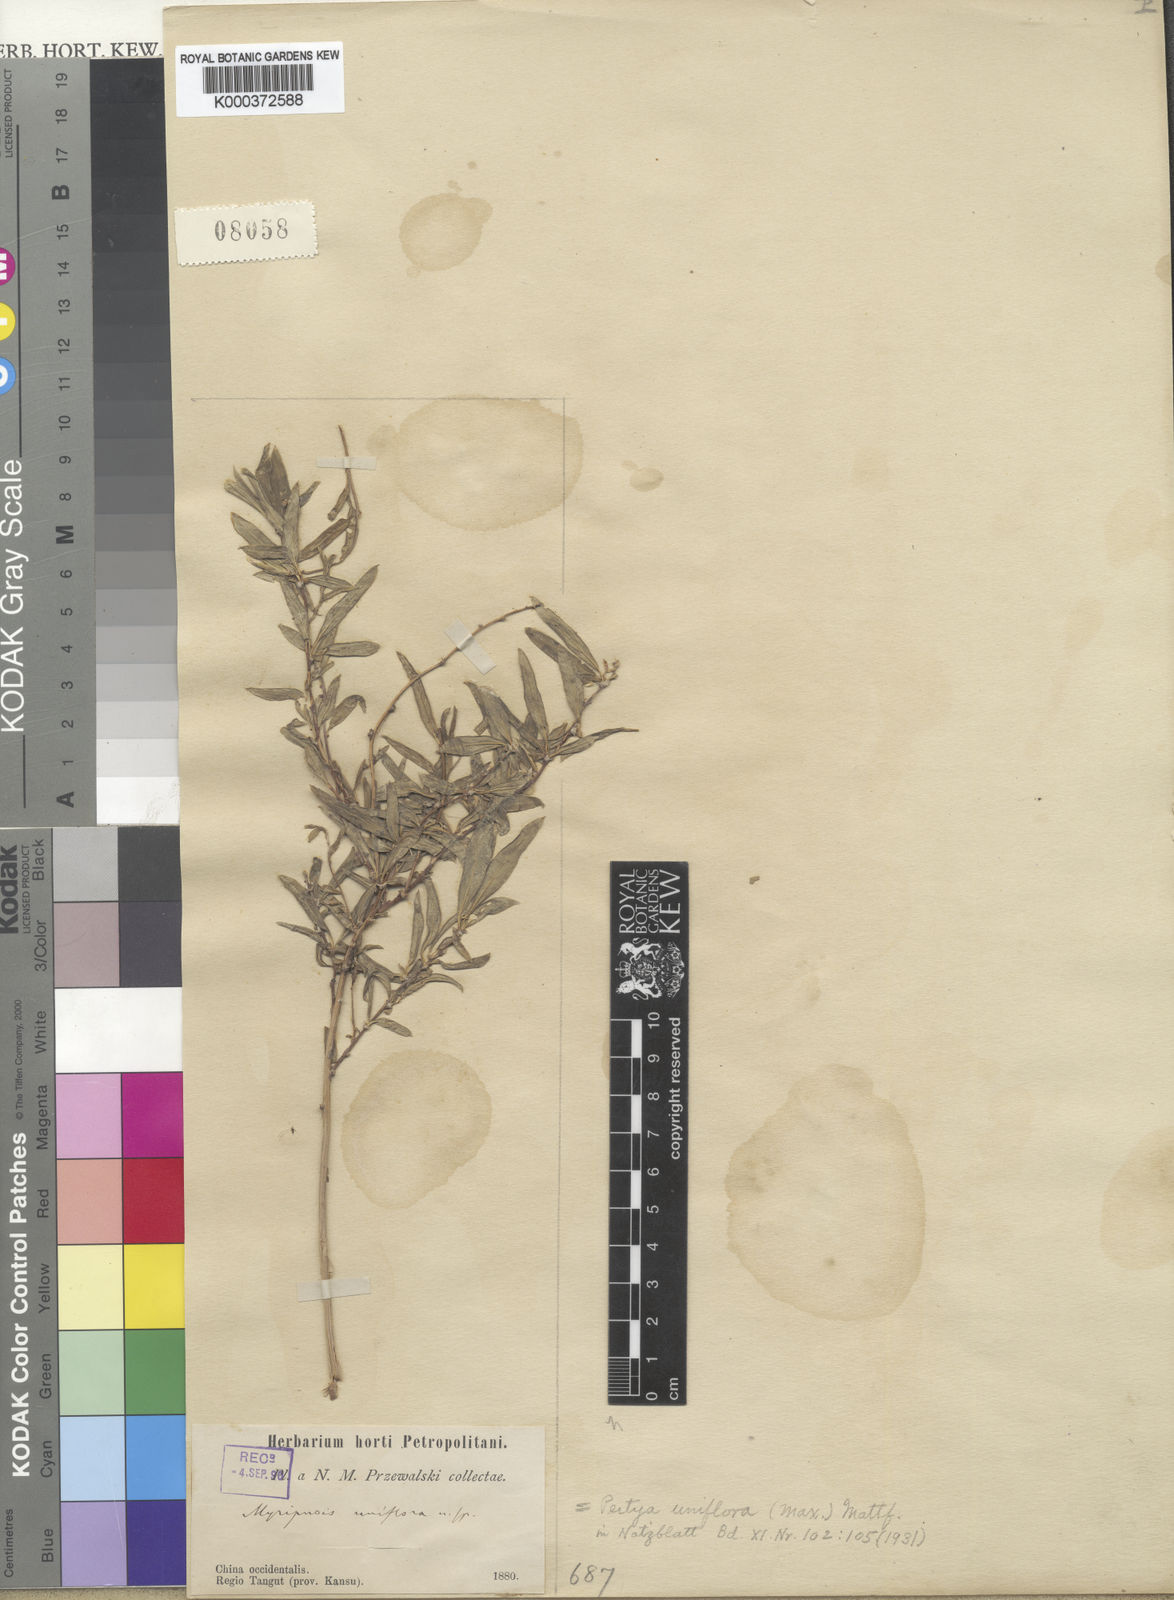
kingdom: Plantae
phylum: Tracheophyta
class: Magnoliopsida
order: Asterales
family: Asteraceae
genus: Pertya
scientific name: Pertya uniflora
